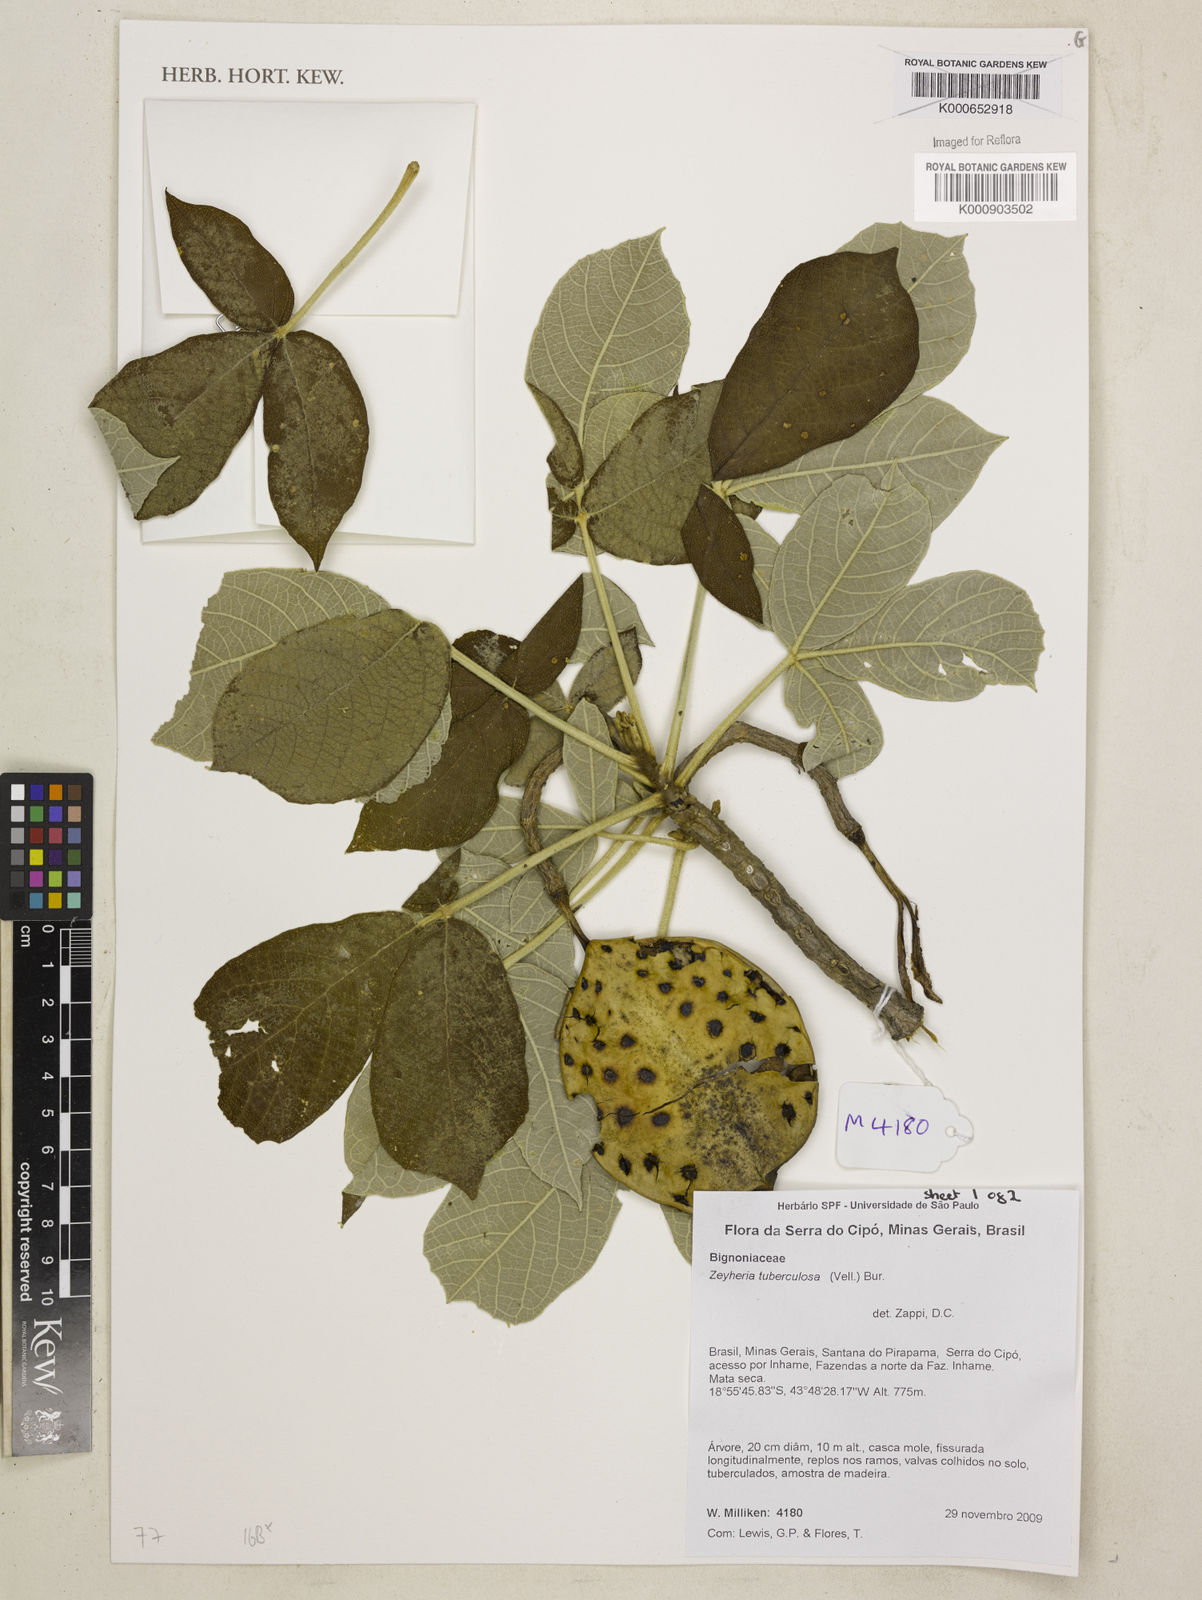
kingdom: Plantae
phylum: Tracheophyta
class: Magnoliopsida
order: Lamiales
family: Bignoniaceae
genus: Zeyheria
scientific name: Zeyheria
